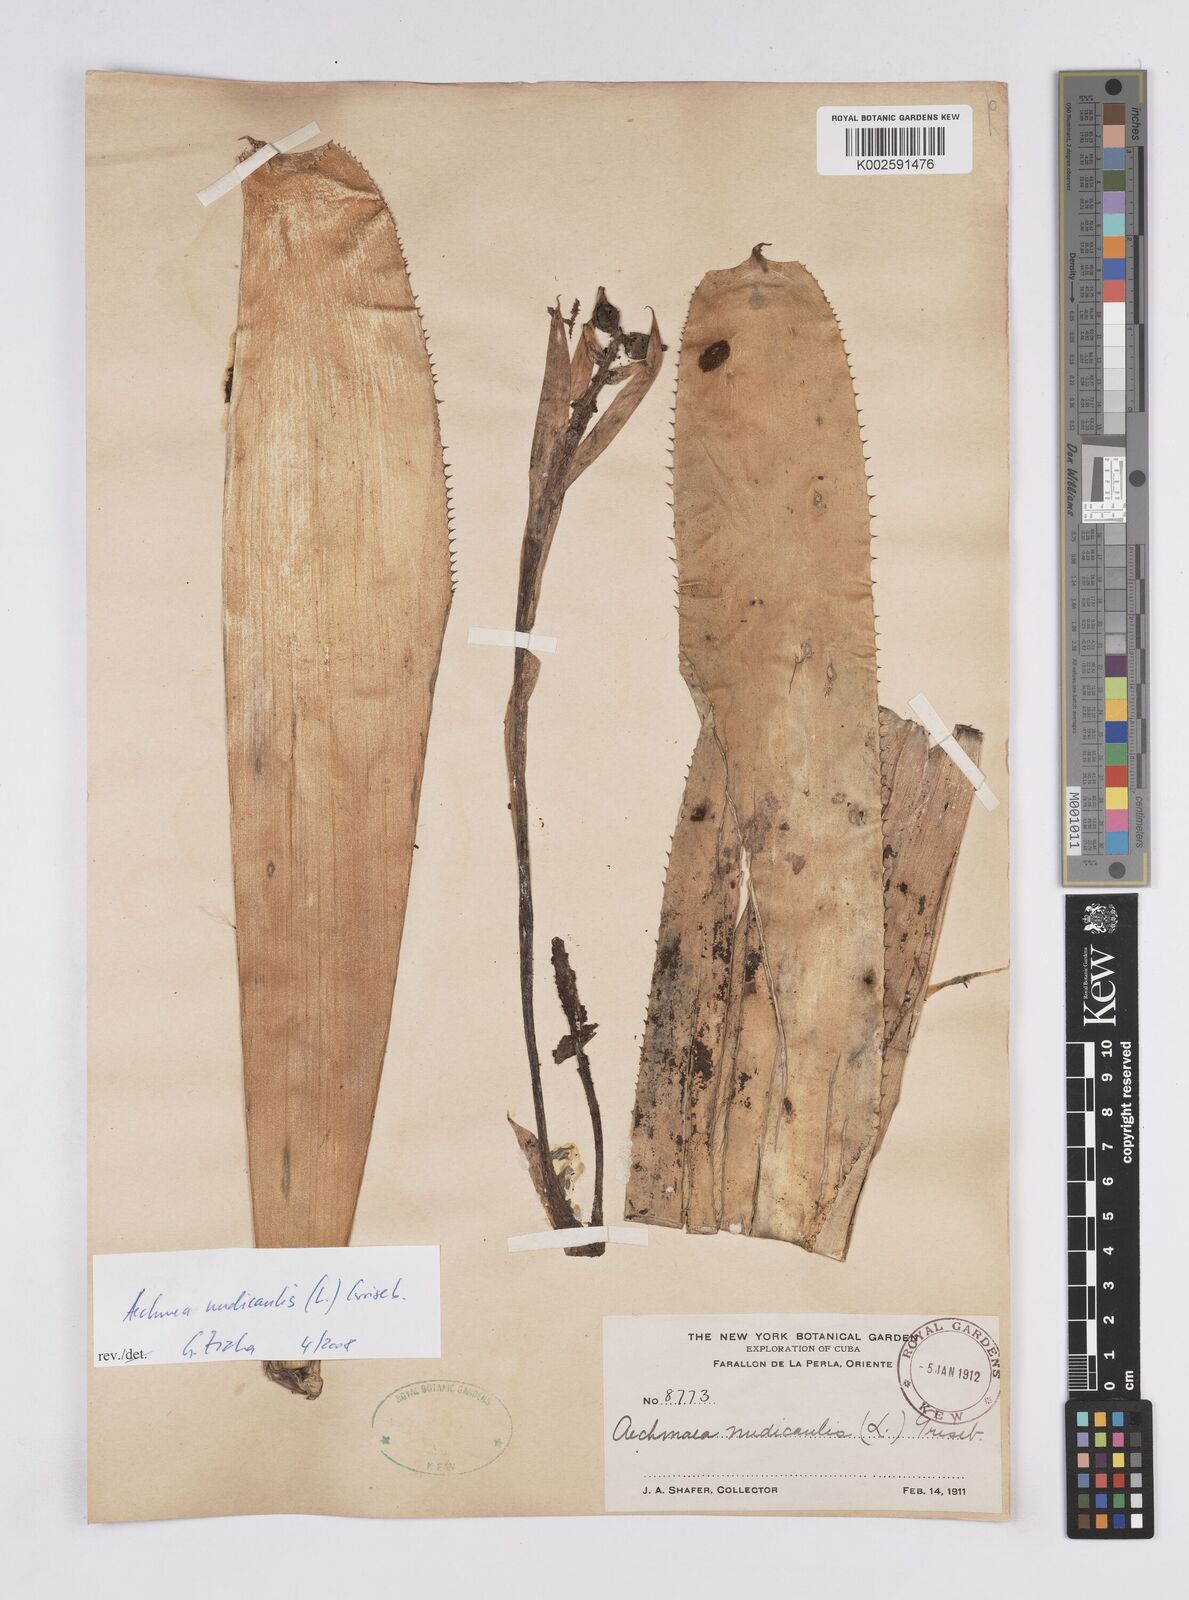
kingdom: Plantae
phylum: Tracheophyta
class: Liliopsida
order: Poales
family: Bromeliaceae
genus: Aechmea
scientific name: Aechmea nudicaulis
